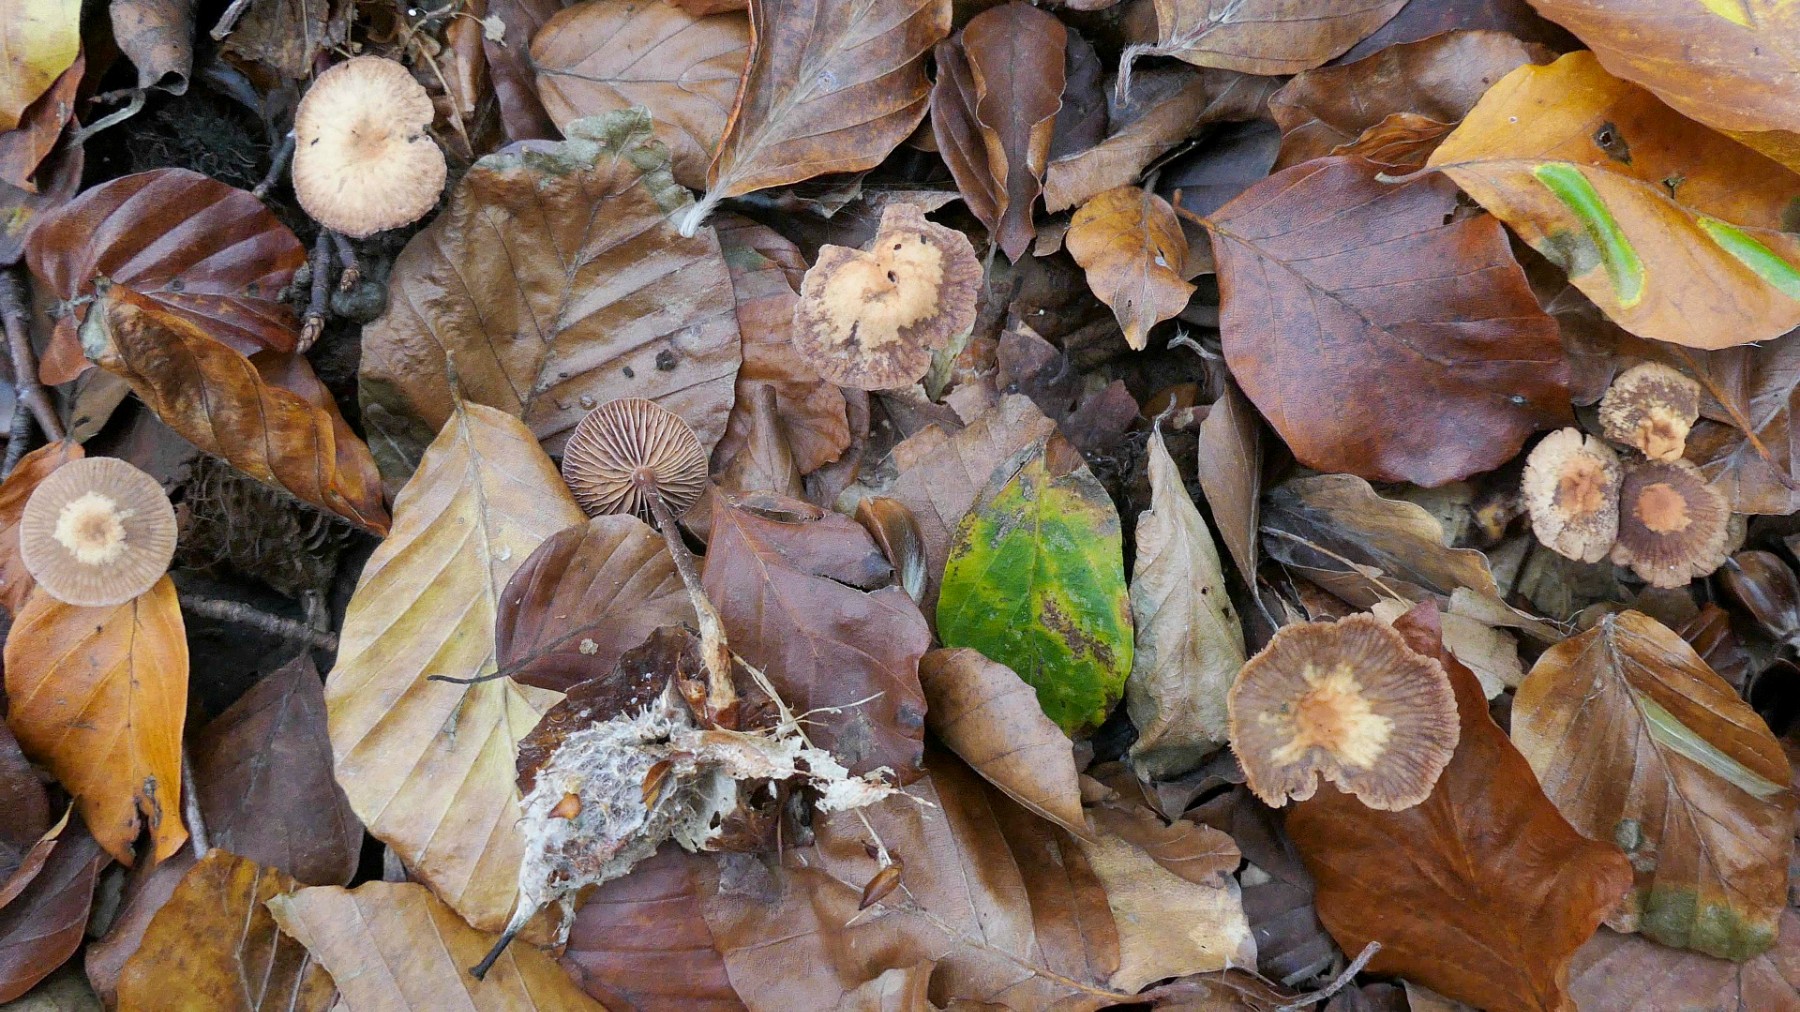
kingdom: Fungi
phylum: Basidiomycota
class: Agaricomycetes
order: Agaricales
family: Omphalotaceae
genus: Gymnopus
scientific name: Gymnopus fuscopurpureus
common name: purpurbrun fladhat
